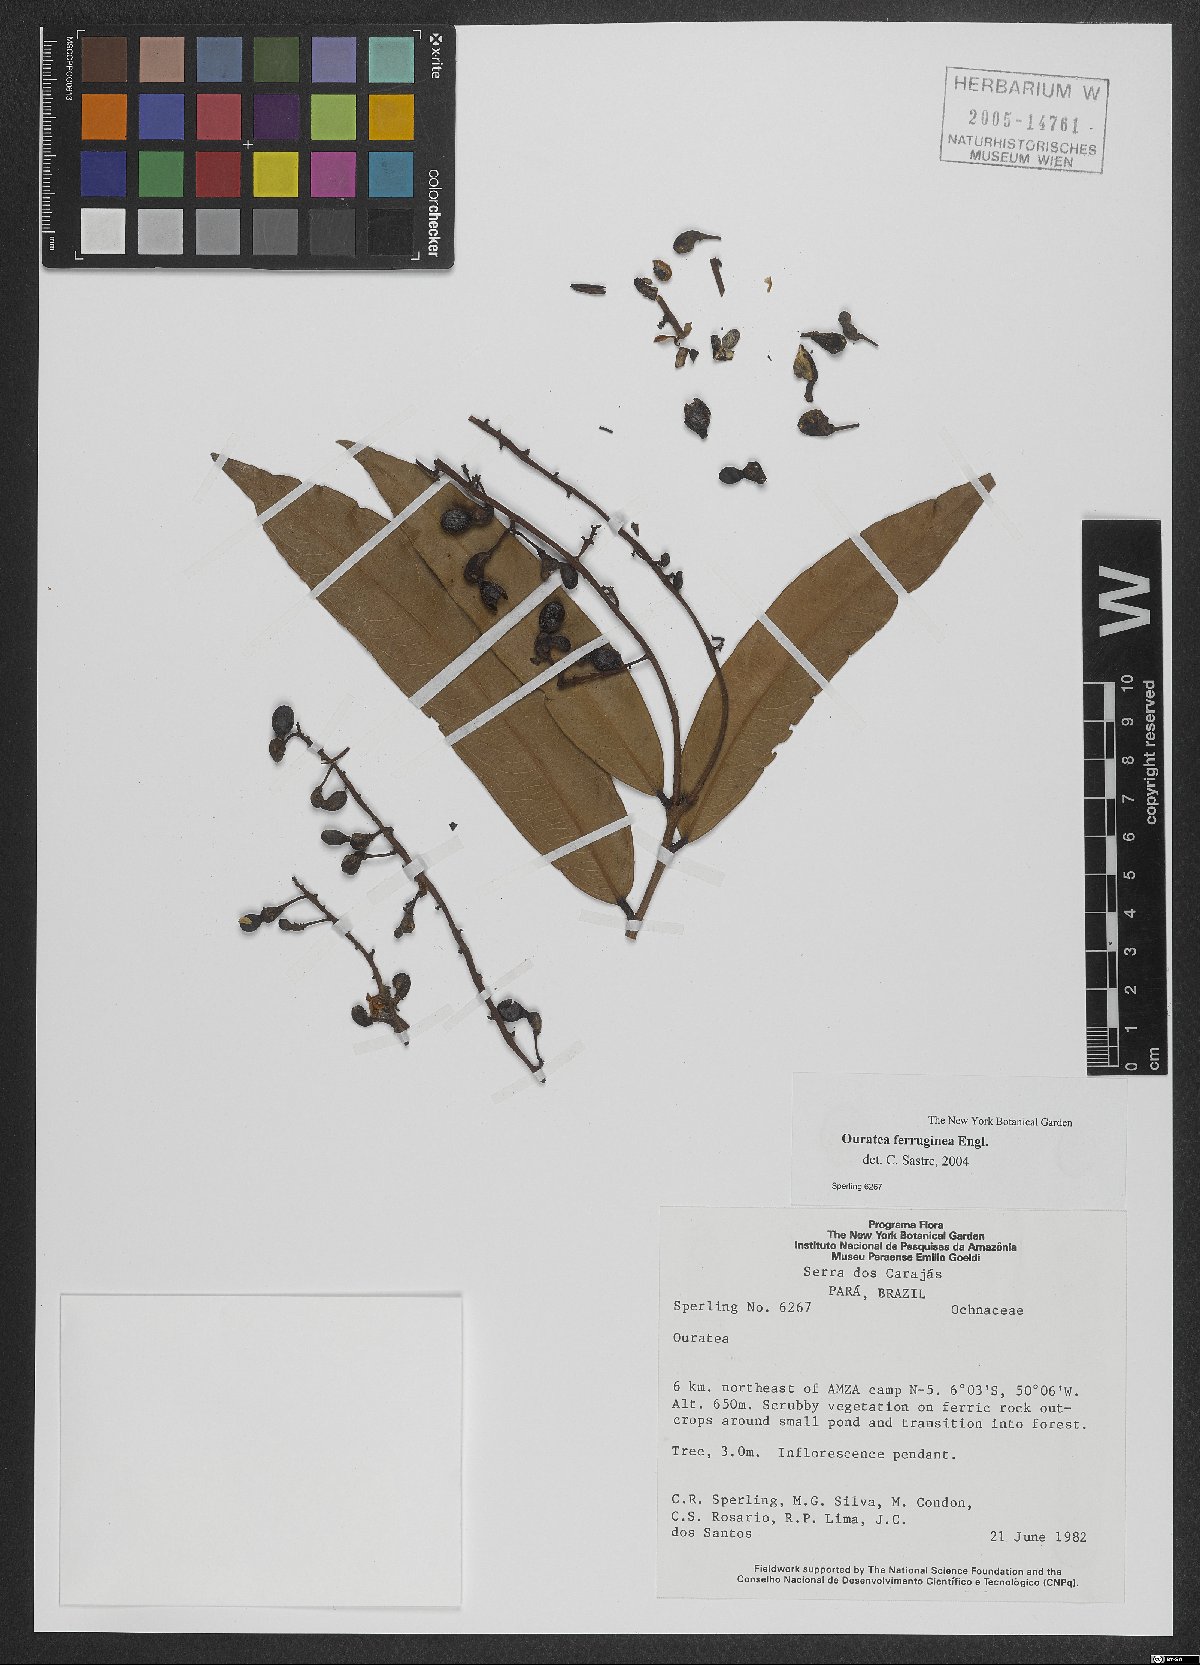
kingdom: Plantae
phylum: Tracheophyta
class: Magnoliopsida
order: Malpighiales
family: Ochnaceae
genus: Ouratea
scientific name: Ouratea ferruginea
